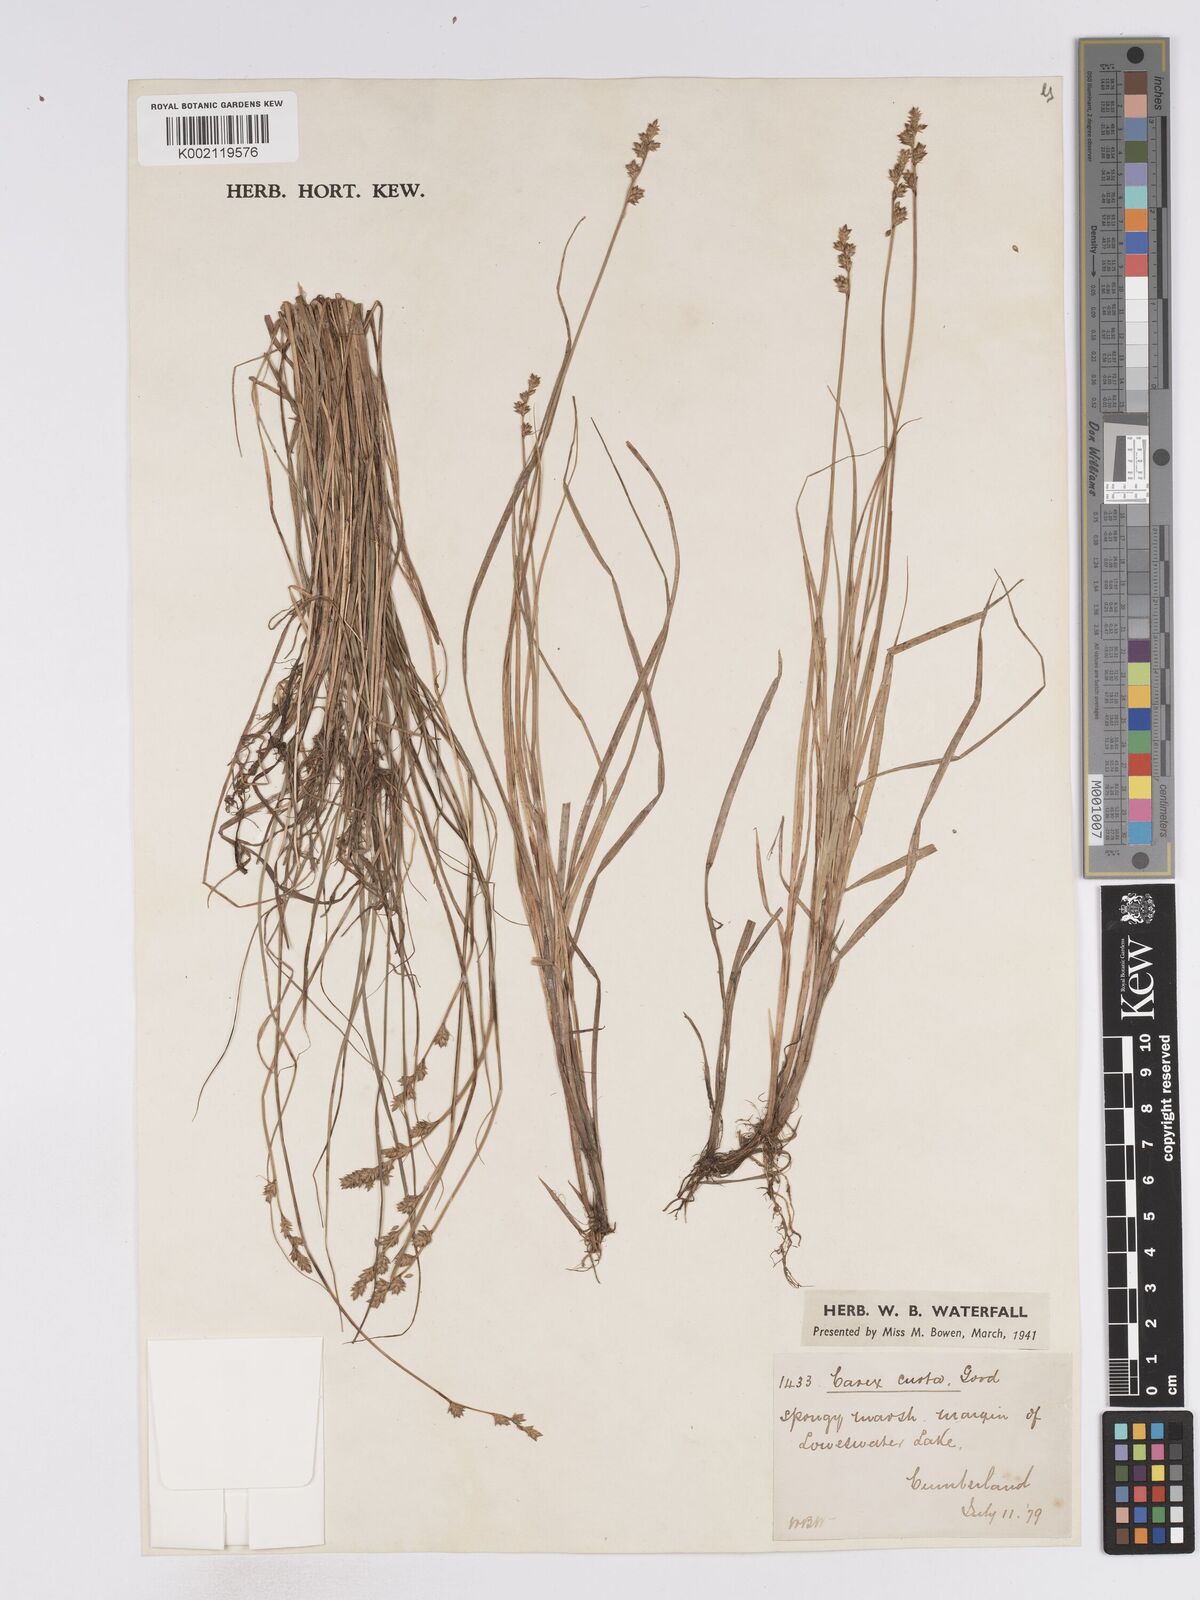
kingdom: Plantae
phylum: Tracheophyta
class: Liliopsida
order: Poales
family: Cyperaceae
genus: Carex
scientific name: Carex curta
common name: White sedge
